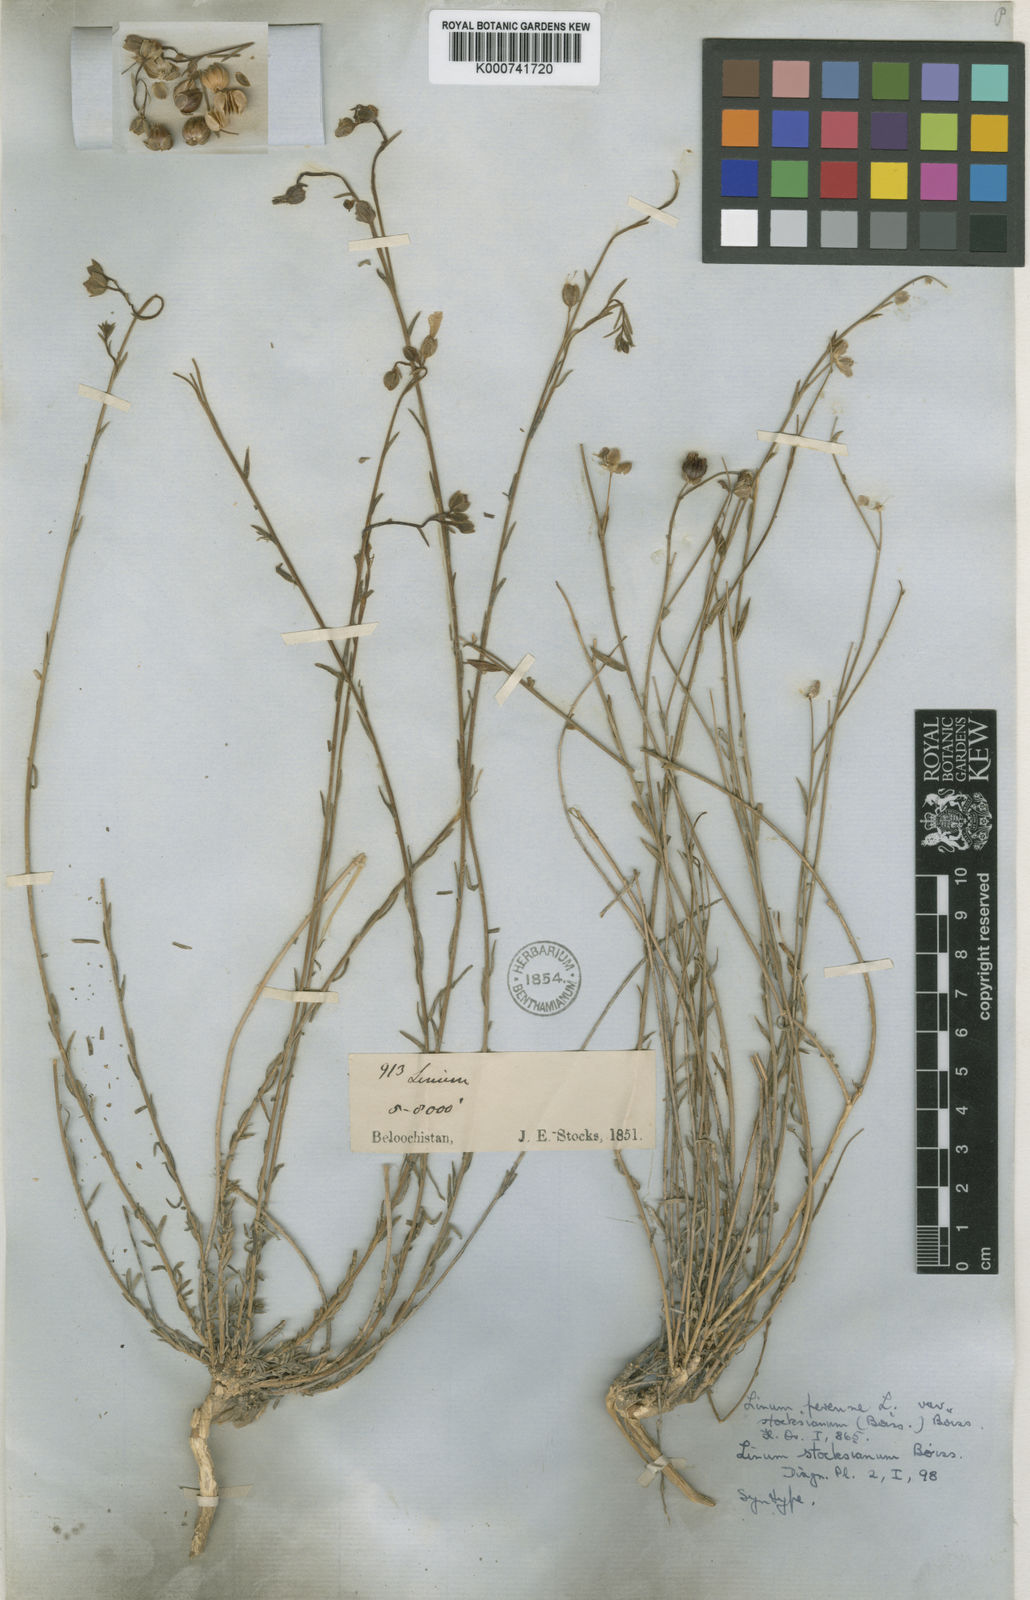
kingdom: Plantae
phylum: Tracheophyta
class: Magnoliopsida
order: Malpighiales
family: Linaceae
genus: Linum
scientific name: Linum perenne
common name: Blue flax
